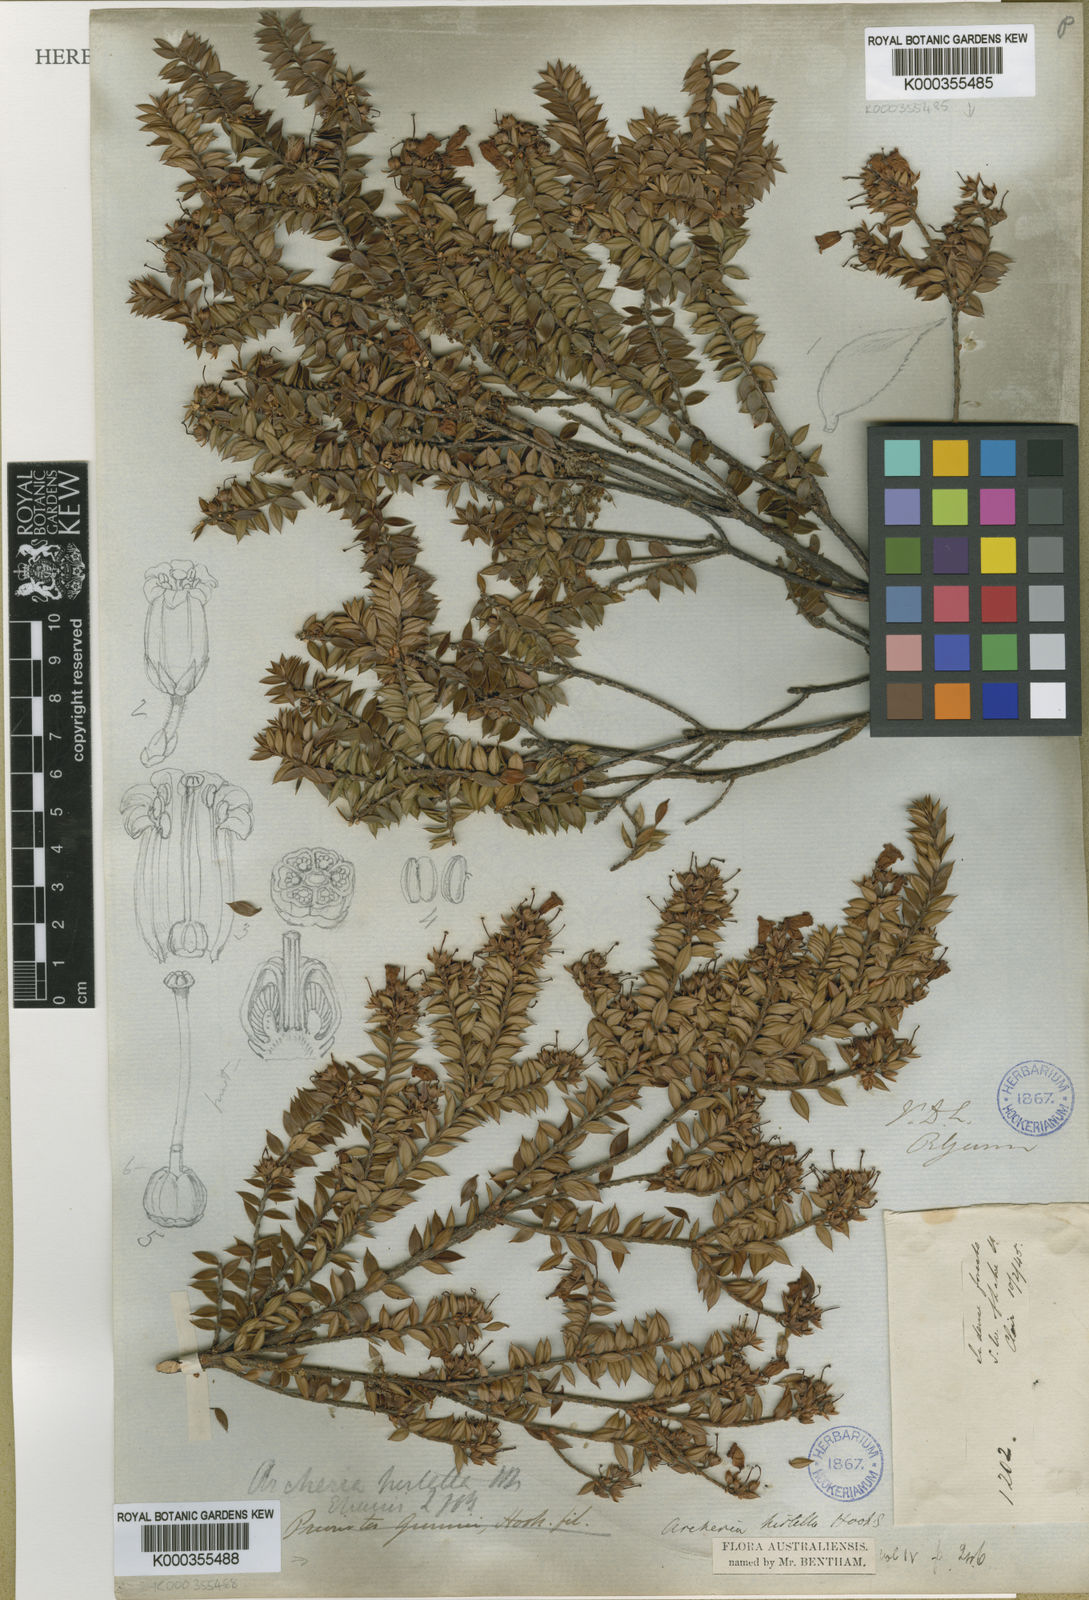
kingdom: Plantae
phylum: Tracheophyta
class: Magnoliopsida
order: Ericales
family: Ericaceae
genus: Archeria
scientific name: Archeria hirtella
